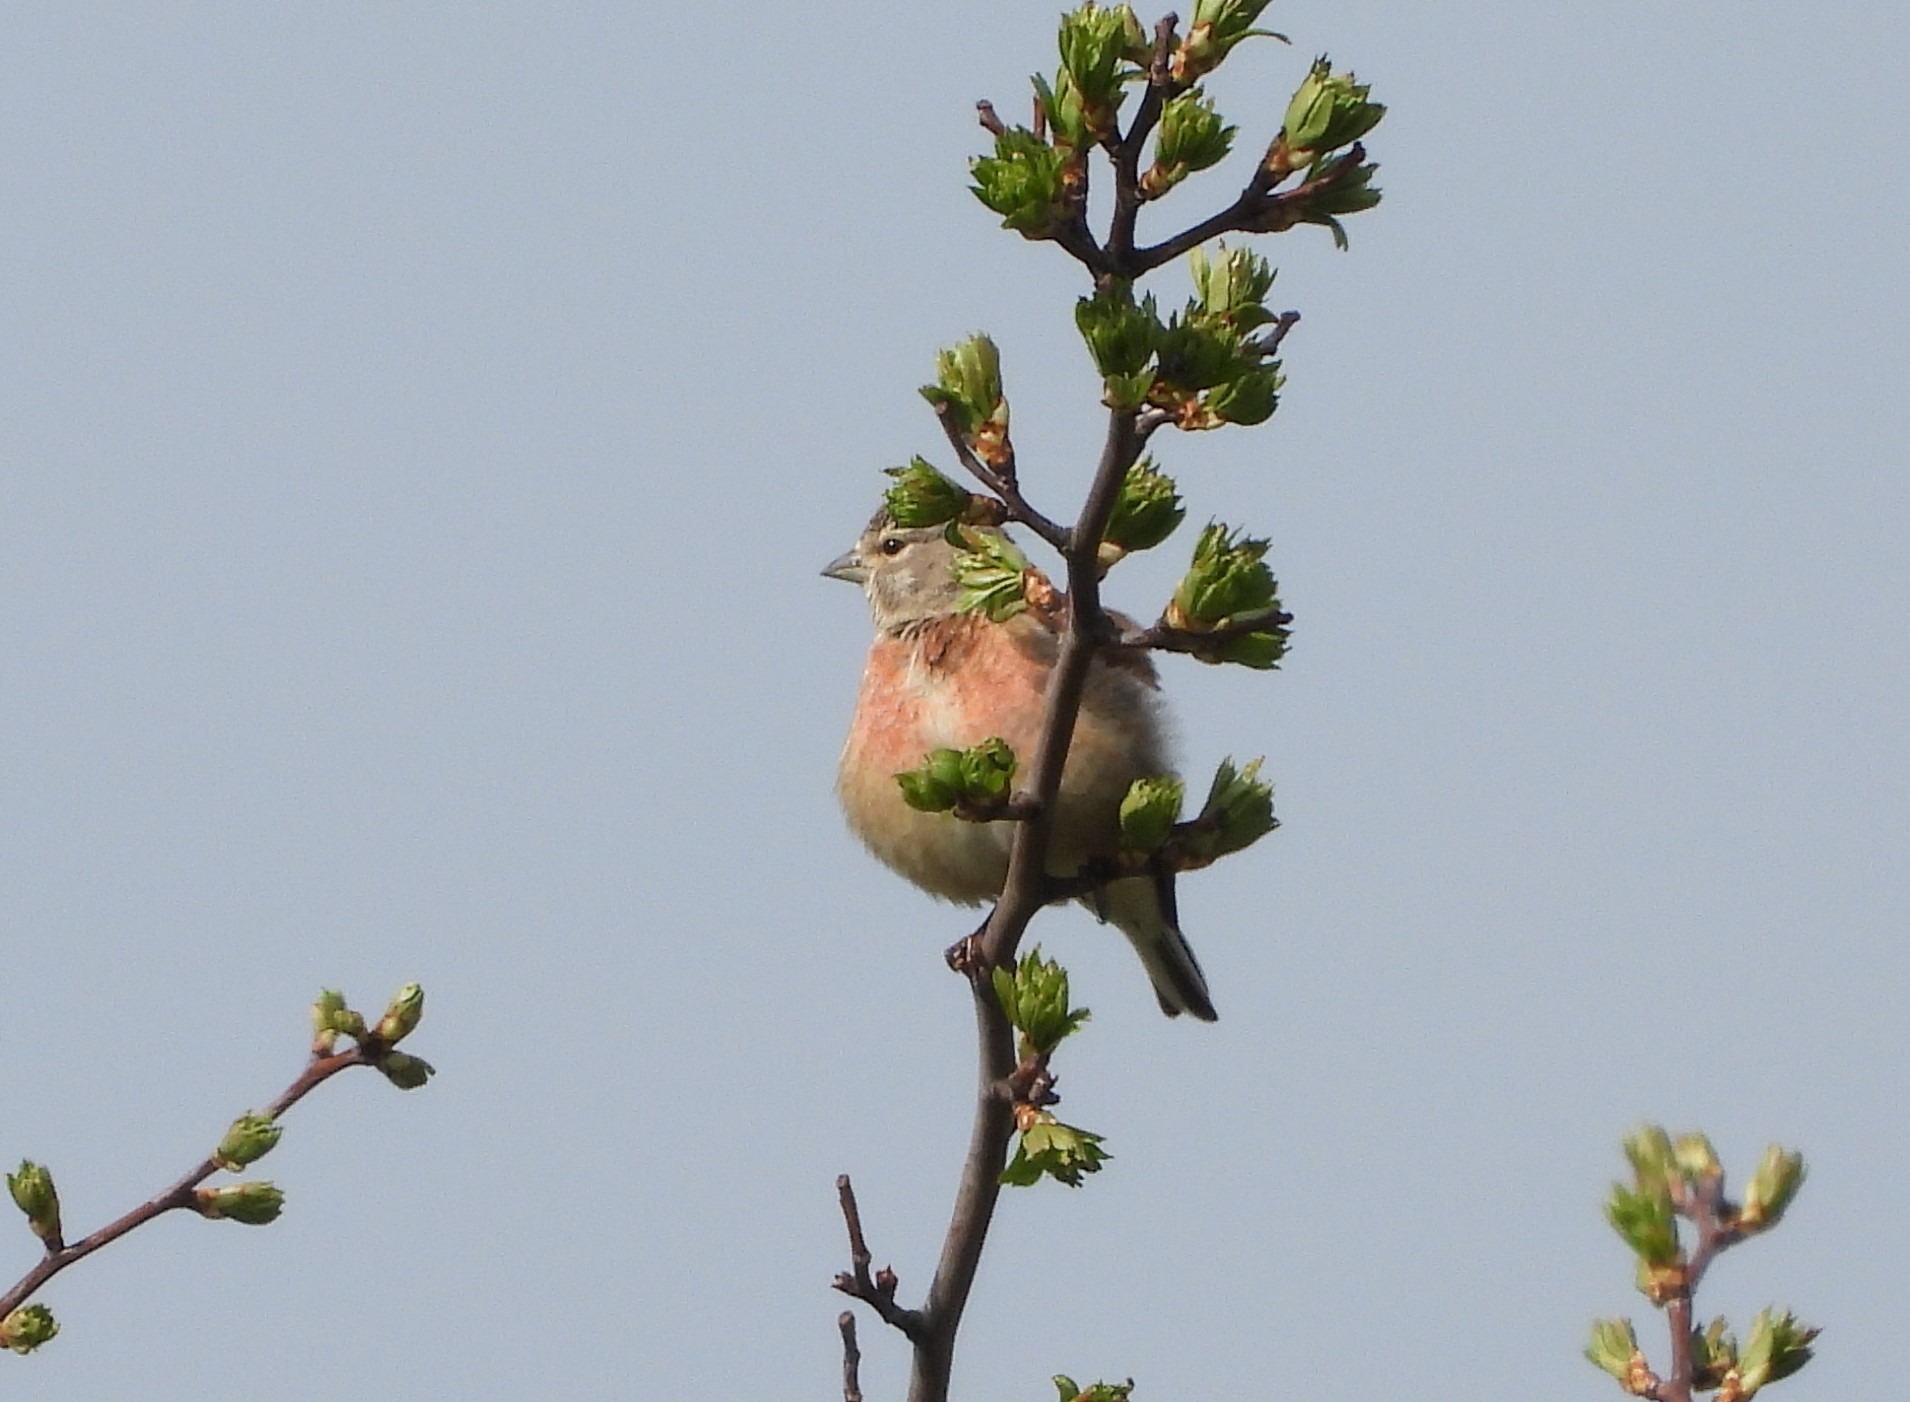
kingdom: Animalia
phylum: Chordata
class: Aves
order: Passeriformes
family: Fringillidae
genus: Linaria
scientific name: Linaria cannabina
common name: Tornirisk
